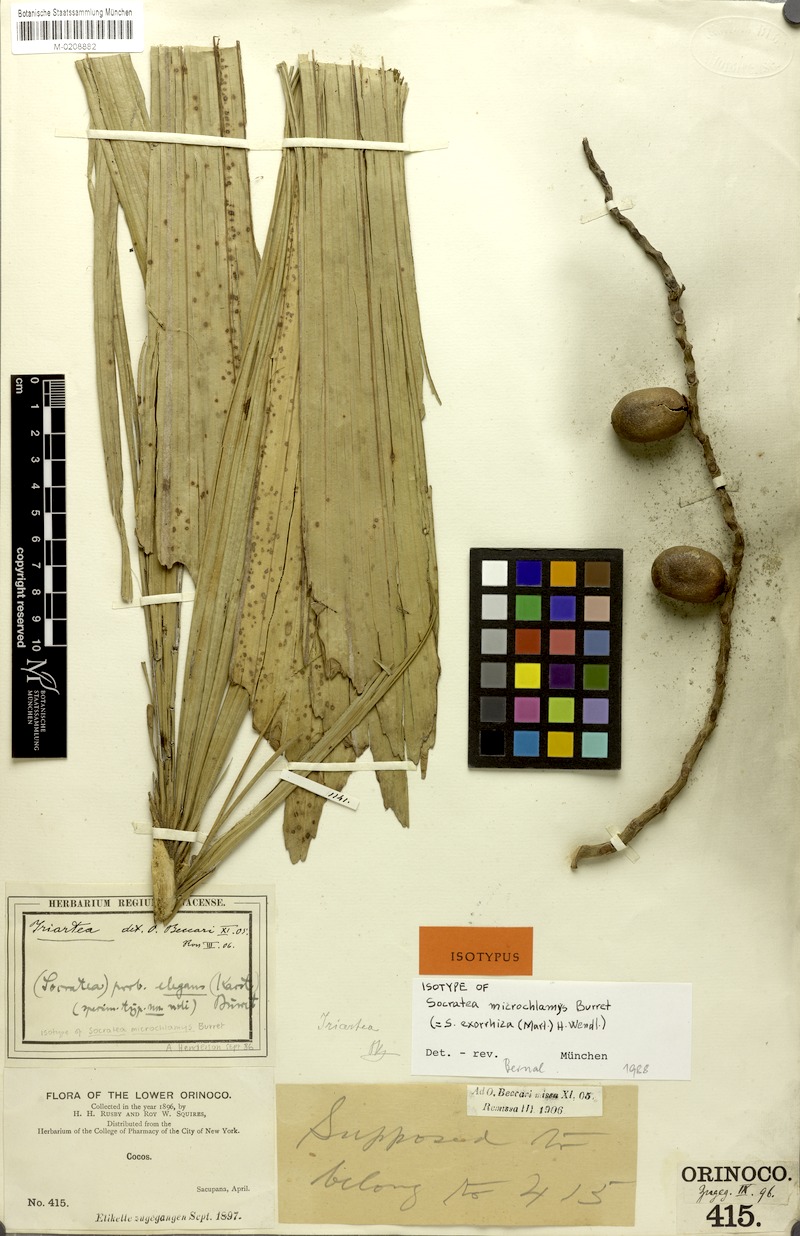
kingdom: Plantae
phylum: Tracheophyta
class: Liliopsida
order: Arecales
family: Arecaceae
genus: Socratea
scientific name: Socratea exorrhiza
